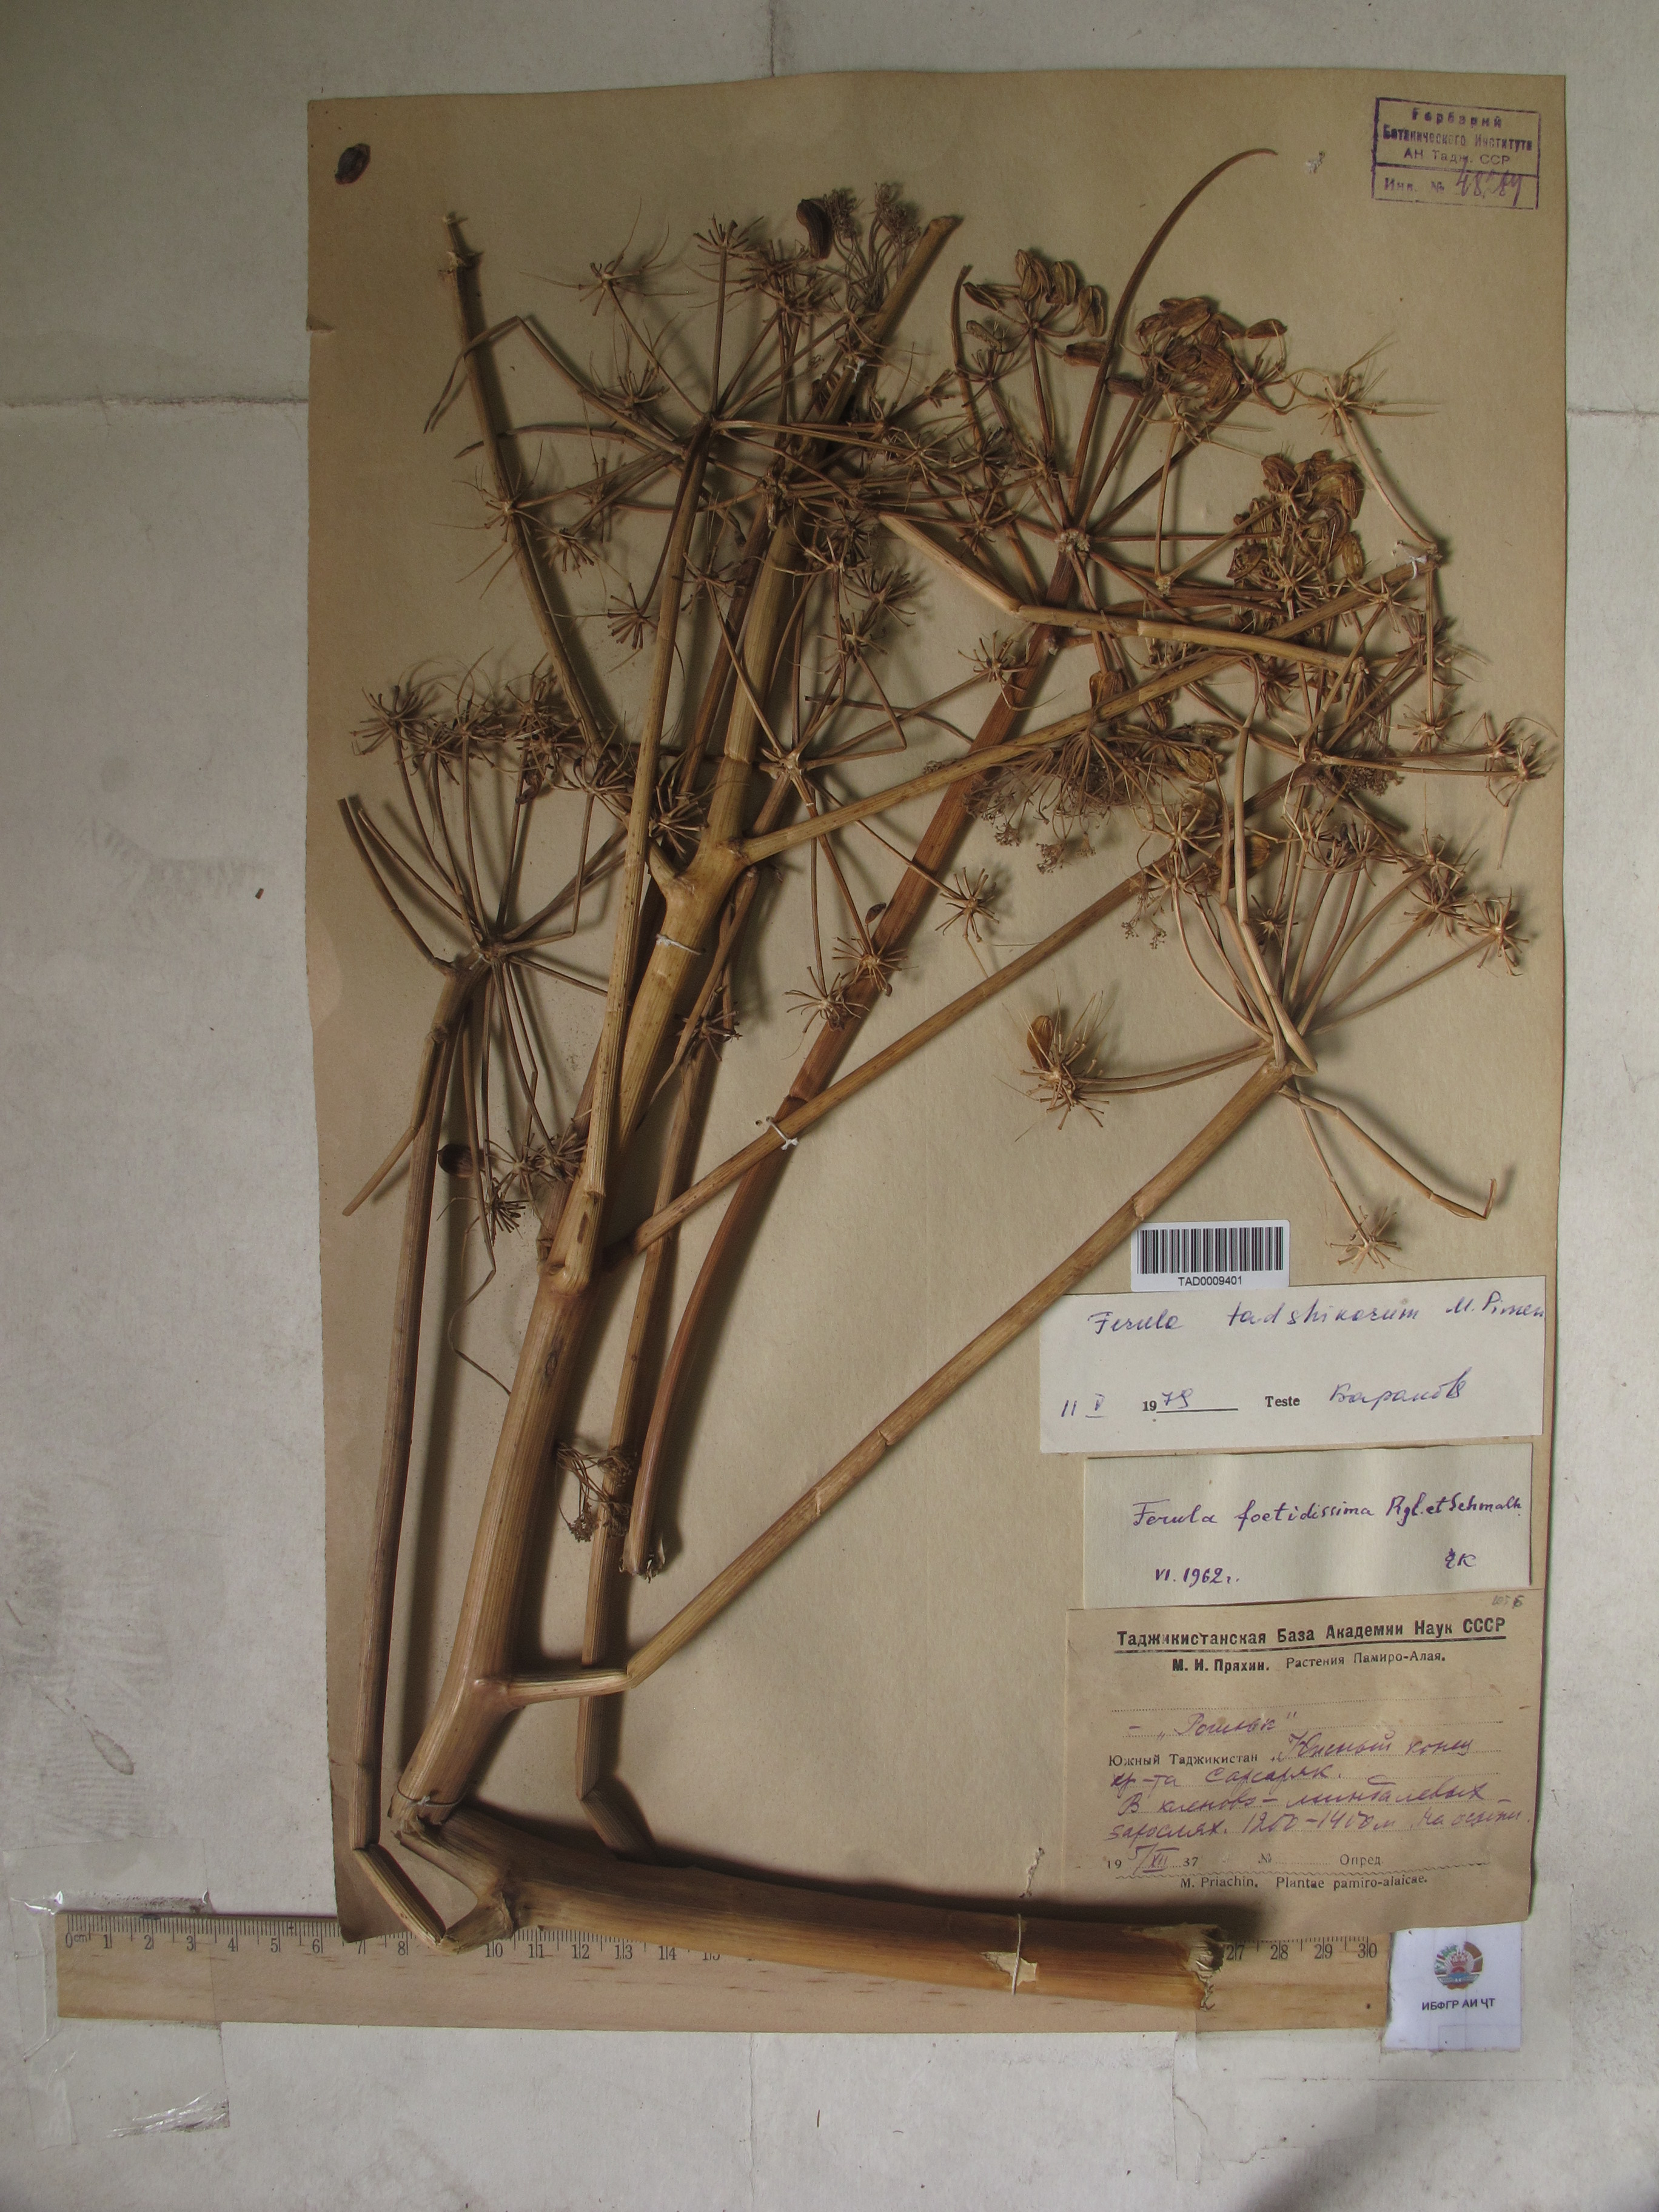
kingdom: Plantae
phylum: Tracheophyta
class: Magnoliopsida
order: Apiales
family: Apiaceae
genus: Ferula
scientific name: Ferula foetidissima
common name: Raba
